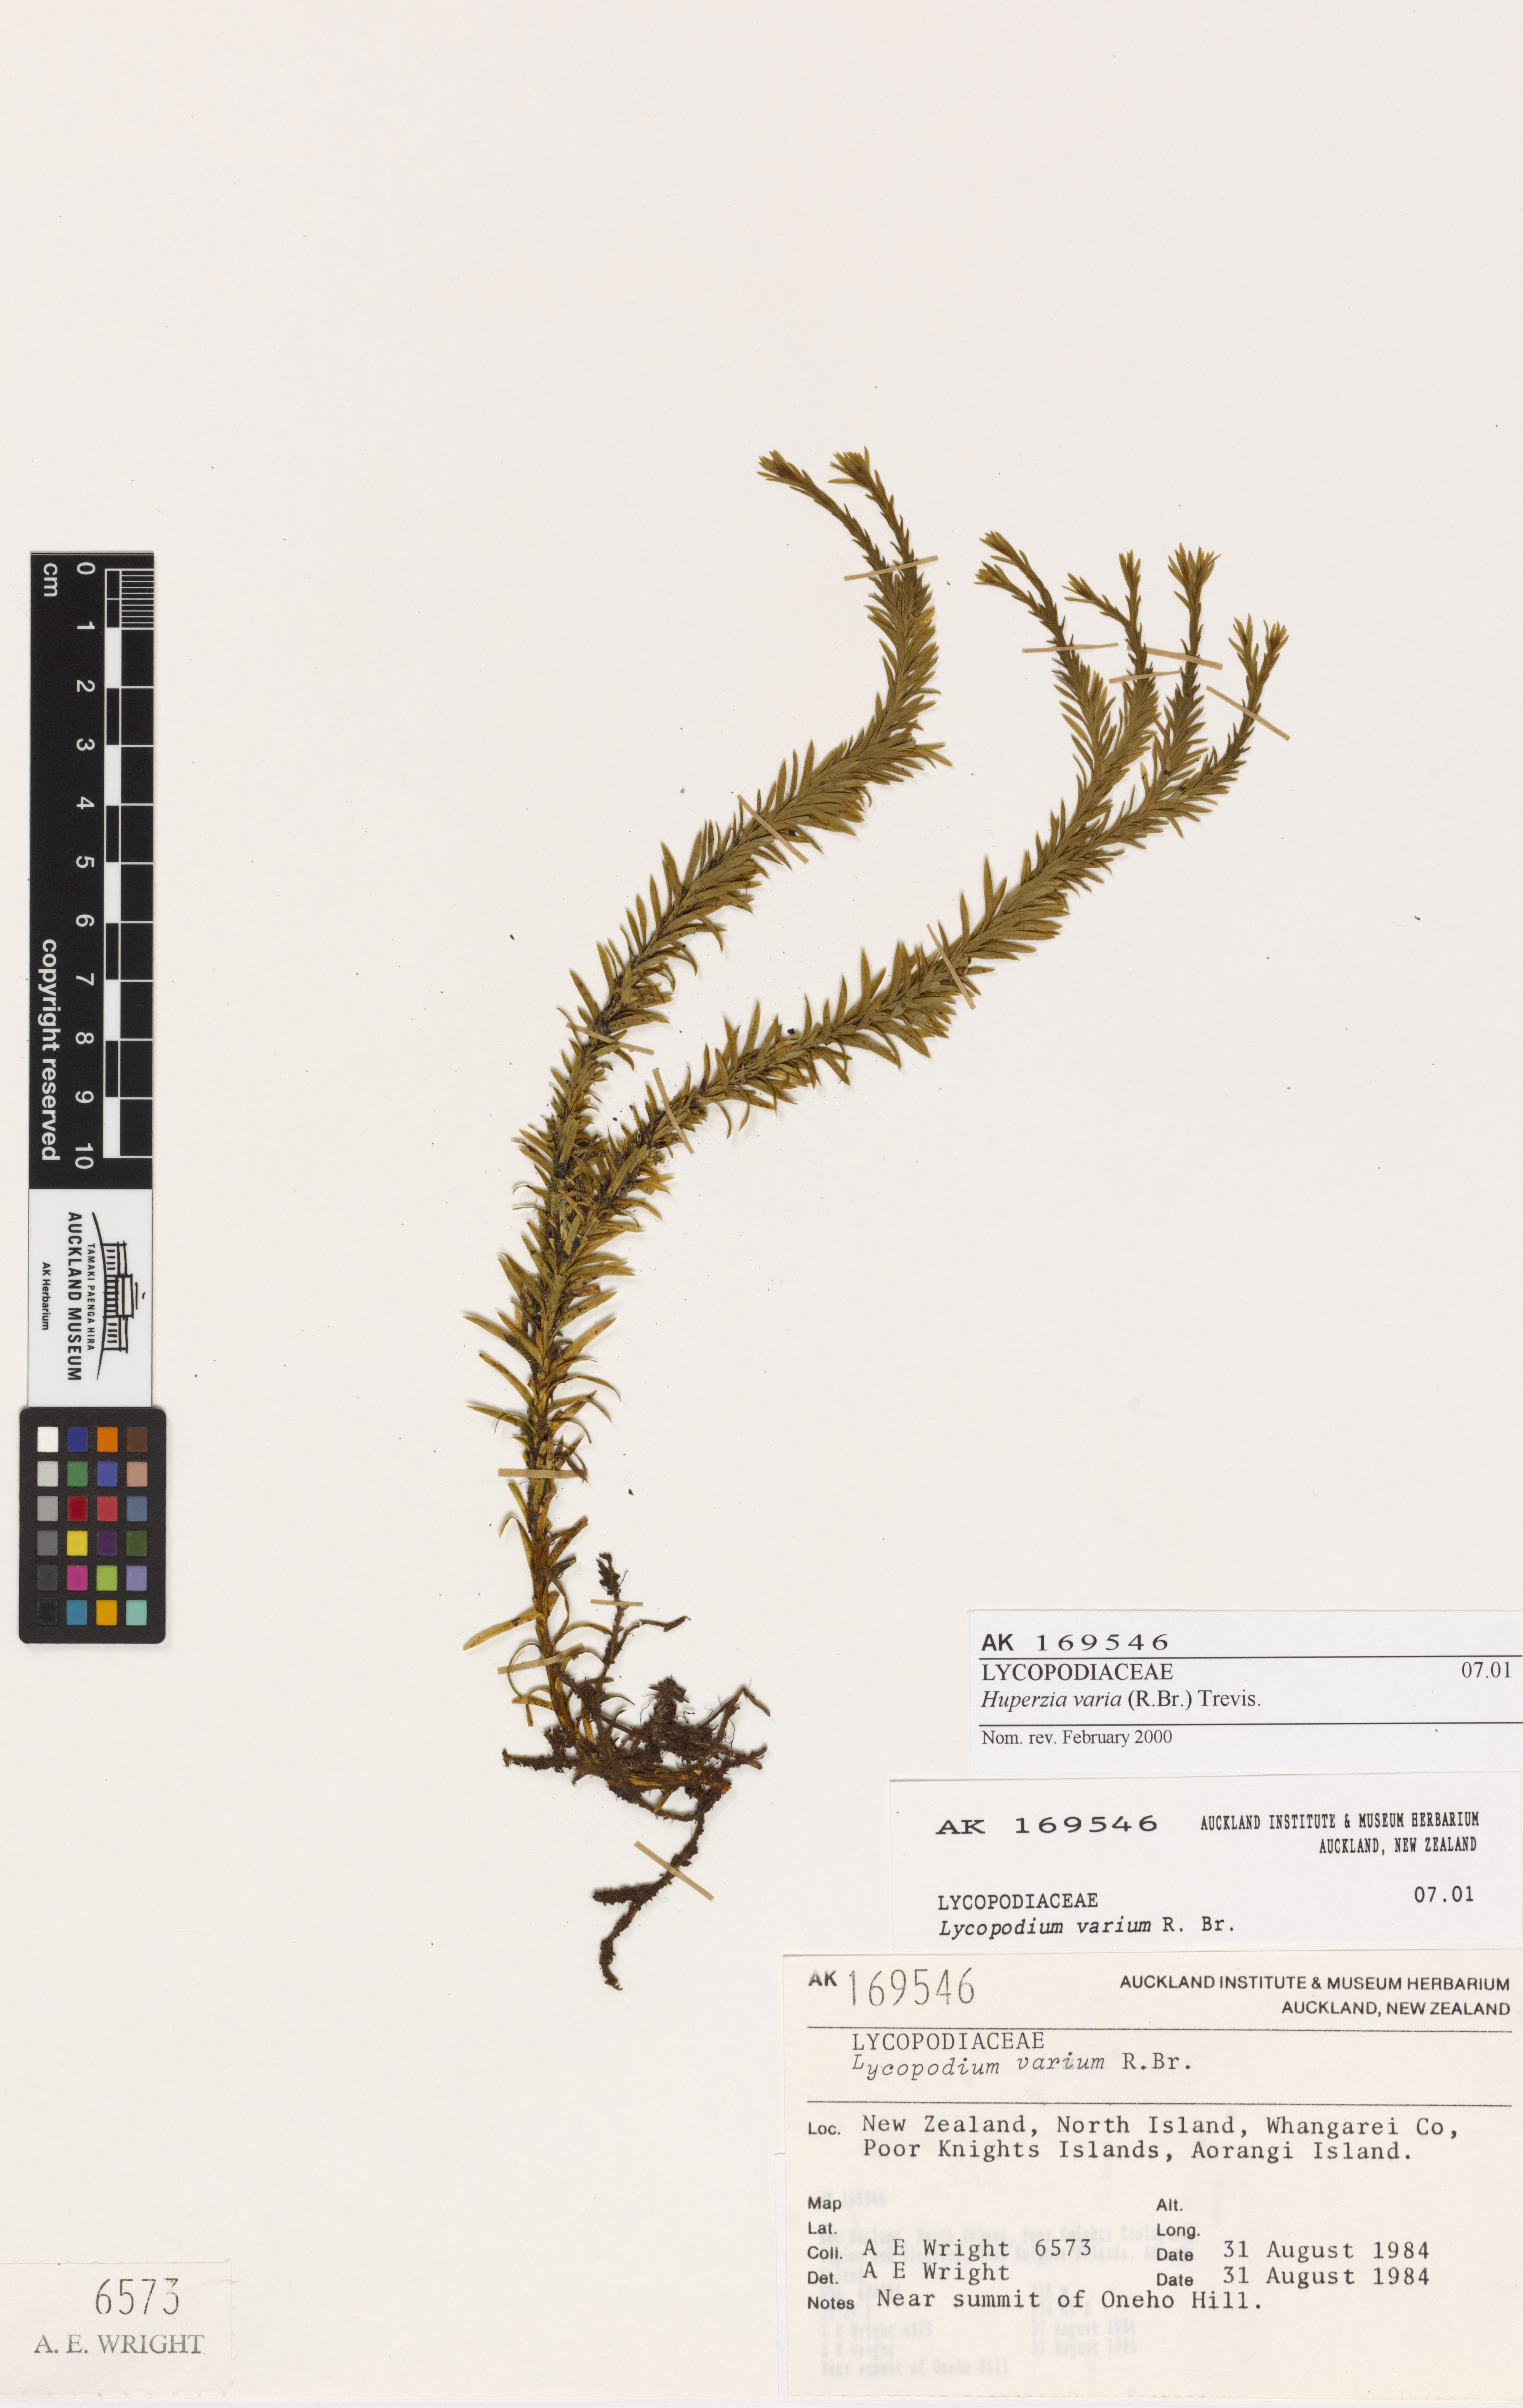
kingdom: Plantae
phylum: Tracheophyta
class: Lycopodiopsida
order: Lycopodiales
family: Lycopodiaceae
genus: Phlegmariurus
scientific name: Phlegmariurus
